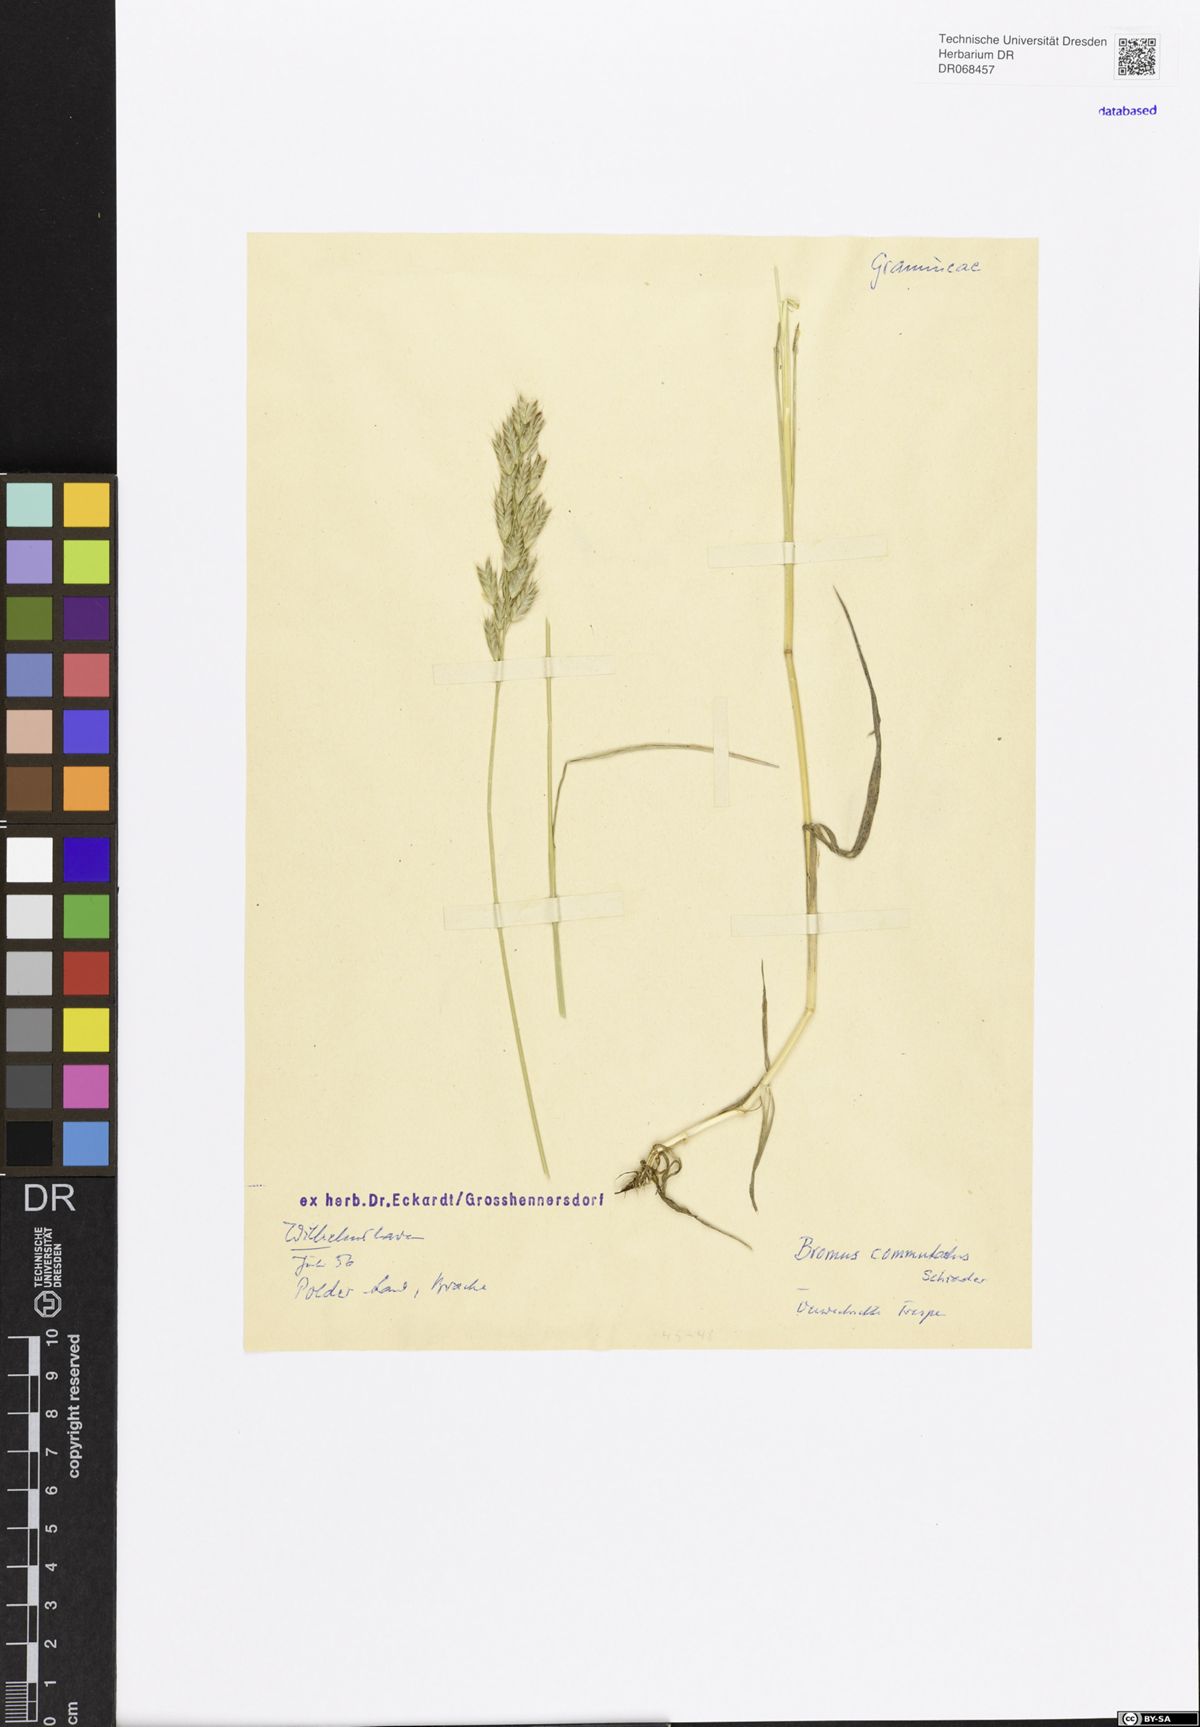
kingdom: Plantae
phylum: Tracheophyta
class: Liliopsida
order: Poales
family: Poaceae
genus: Bromus
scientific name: Bromus commutatus
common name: Meadow brome
